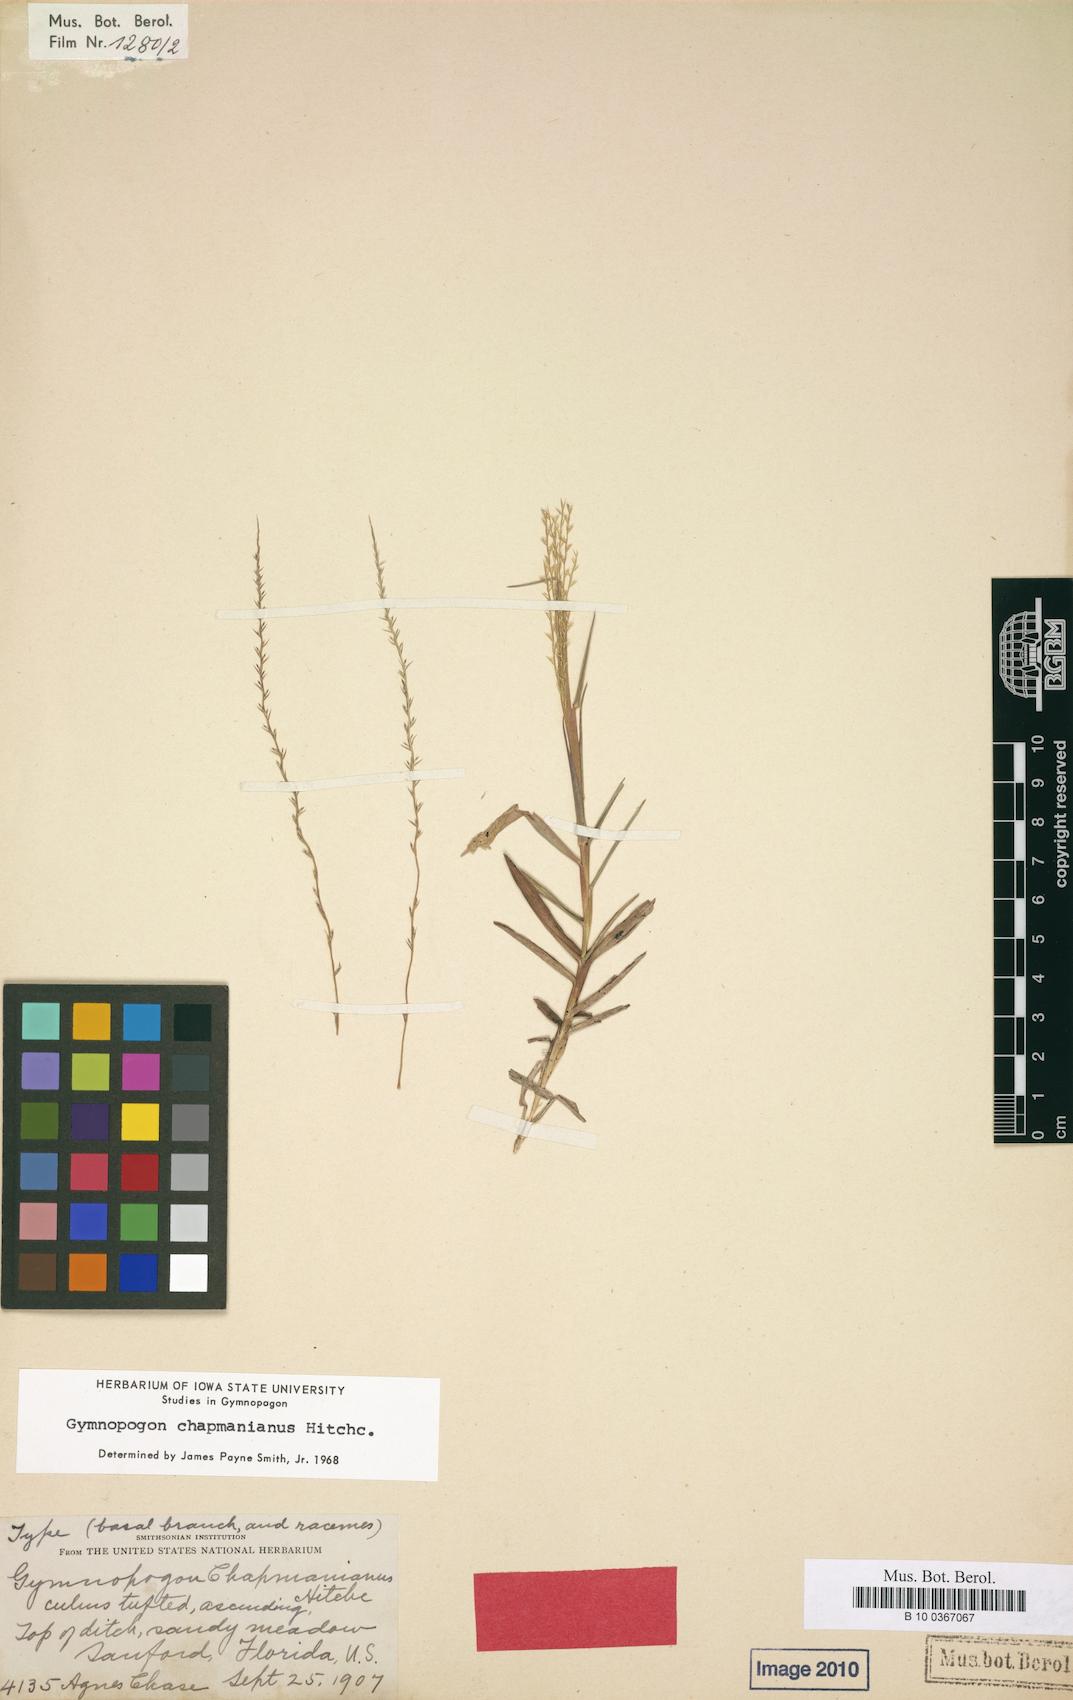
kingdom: Plantae
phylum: Tracheophyta
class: Liliopsida
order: Poales
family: Poaceae
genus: Gymnopogon
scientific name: Gymnopogon chapmanianus
